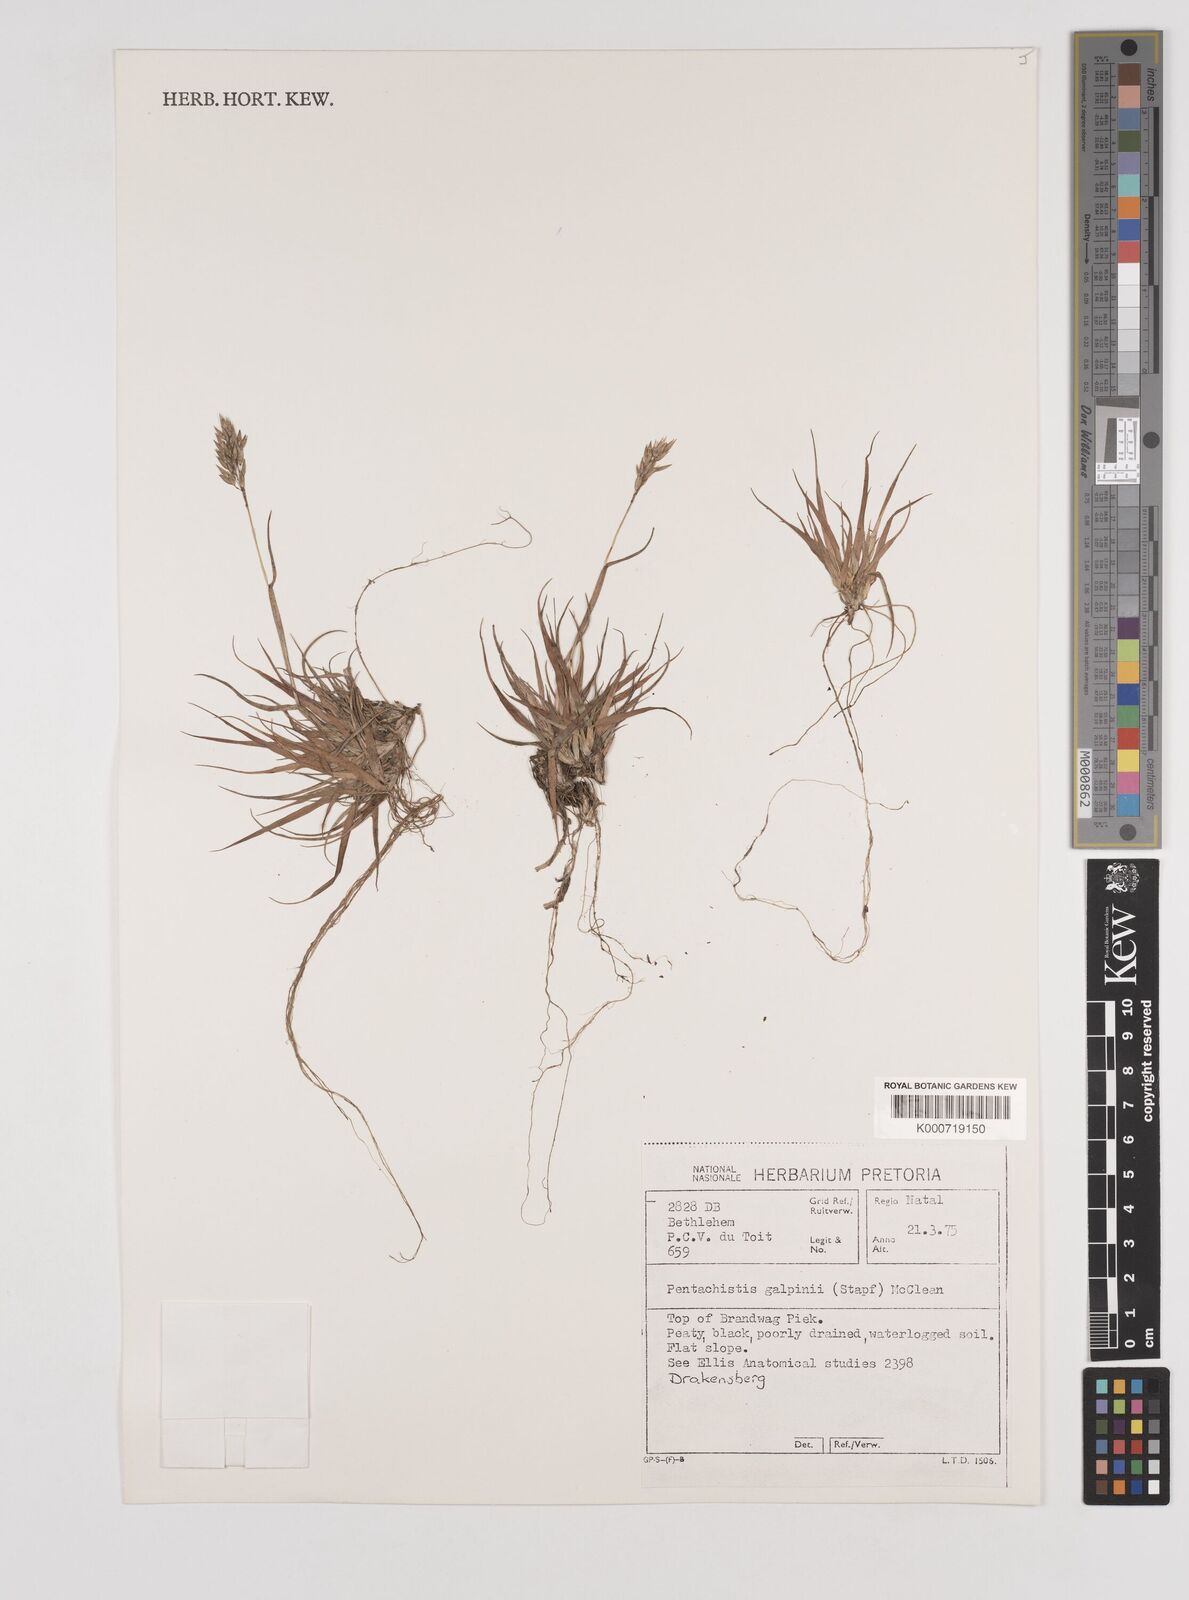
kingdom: Plantae
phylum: Tracheophyta
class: Liliopsida
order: Poales
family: Poaceae
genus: Pentameris
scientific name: Pentameris galpinii
